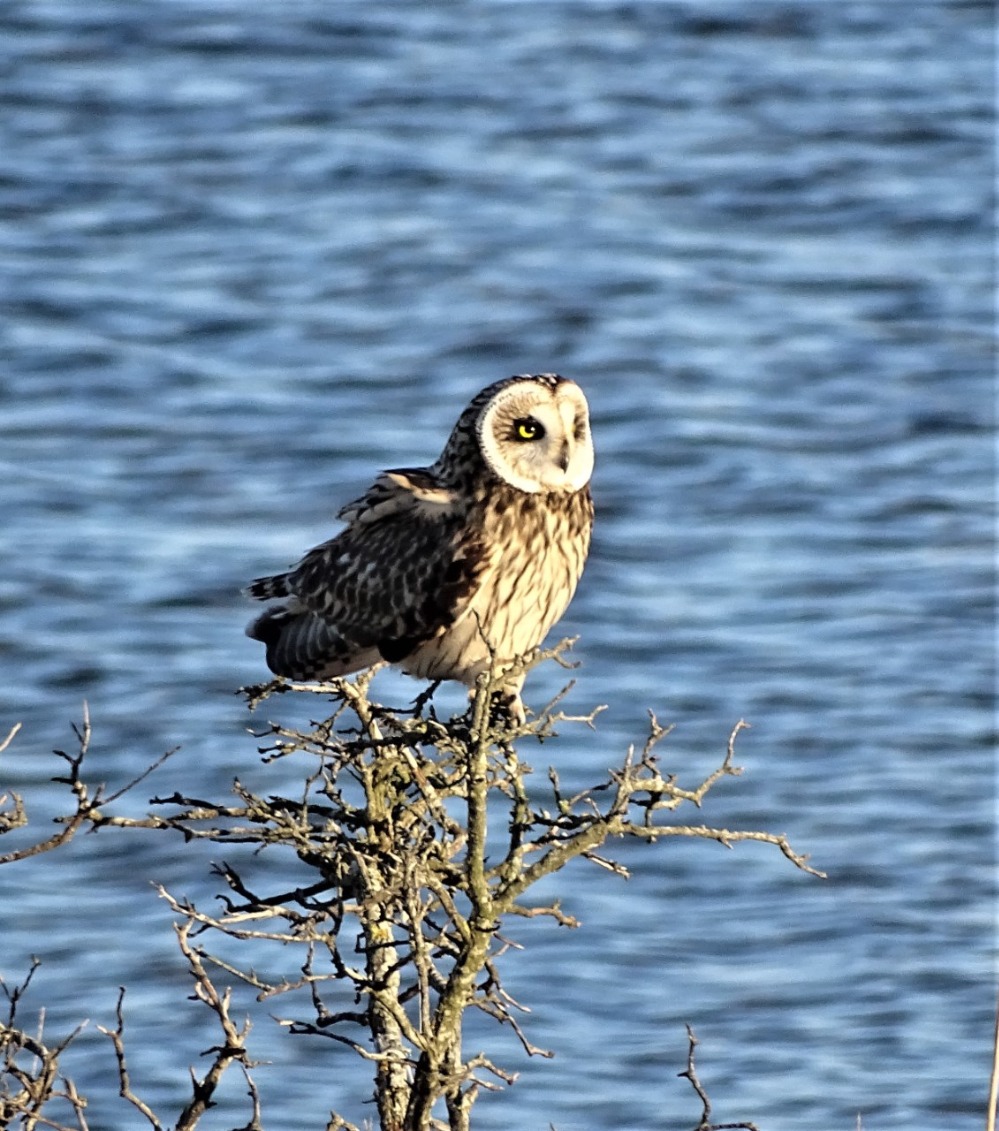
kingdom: Animalia
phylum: Chordata
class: Aves
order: Strigiformes
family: Strigidae
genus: Asio
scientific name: Asio flammeus
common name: Mosehornugle
